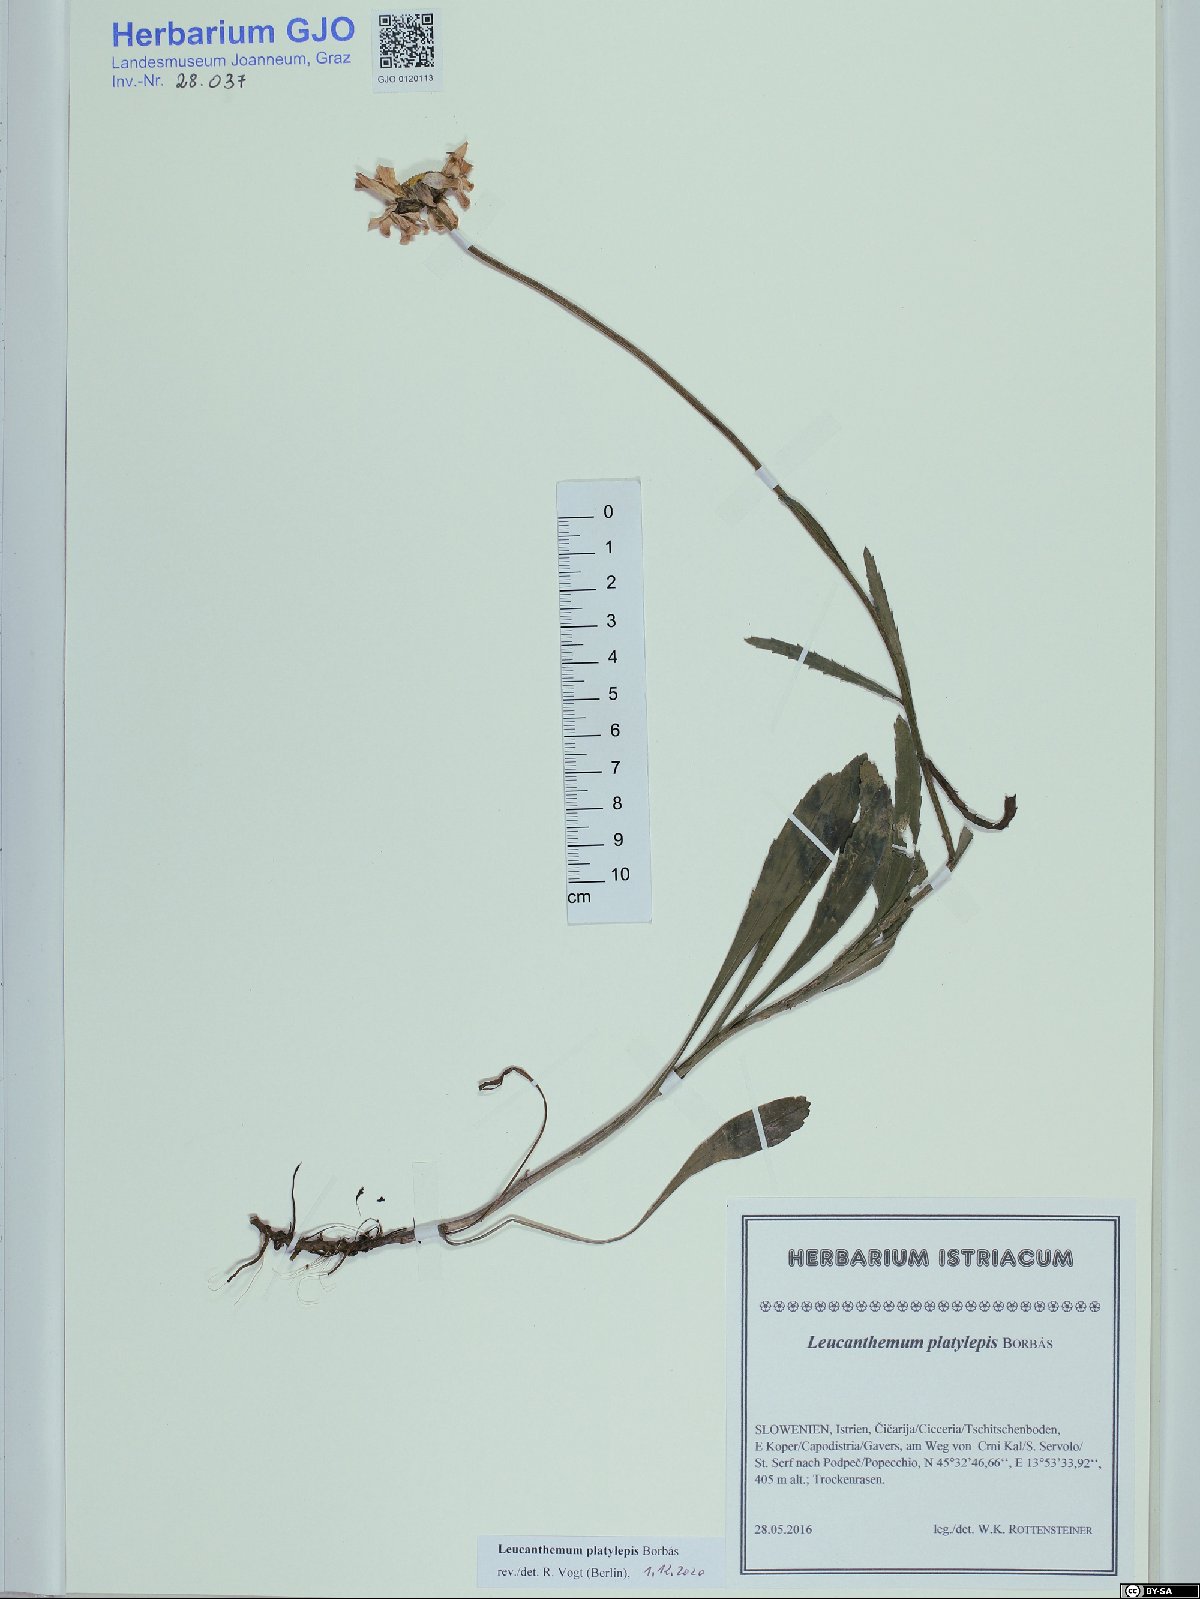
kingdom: Plantae
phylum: Tracheophyta
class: Magnoliopsida
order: Asterales
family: Asteraceae
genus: Leucanthemum
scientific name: Leucanthemum platylepis
